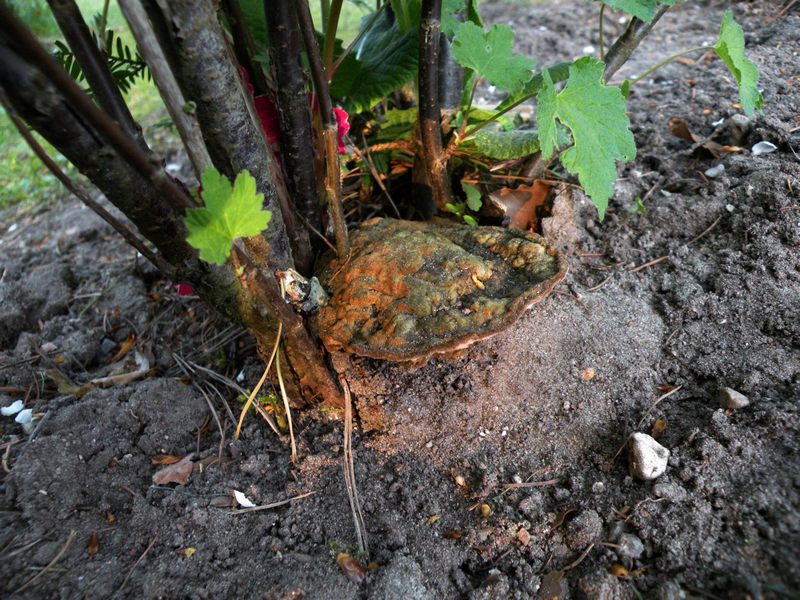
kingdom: Fungi
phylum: Basidiomycota
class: Agaricomycetes
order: Hymenochaetales
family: Hymenochaetaceae
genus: Phylloporia
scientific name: Phylloporia ribis
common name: ribs-ildporesvamp
